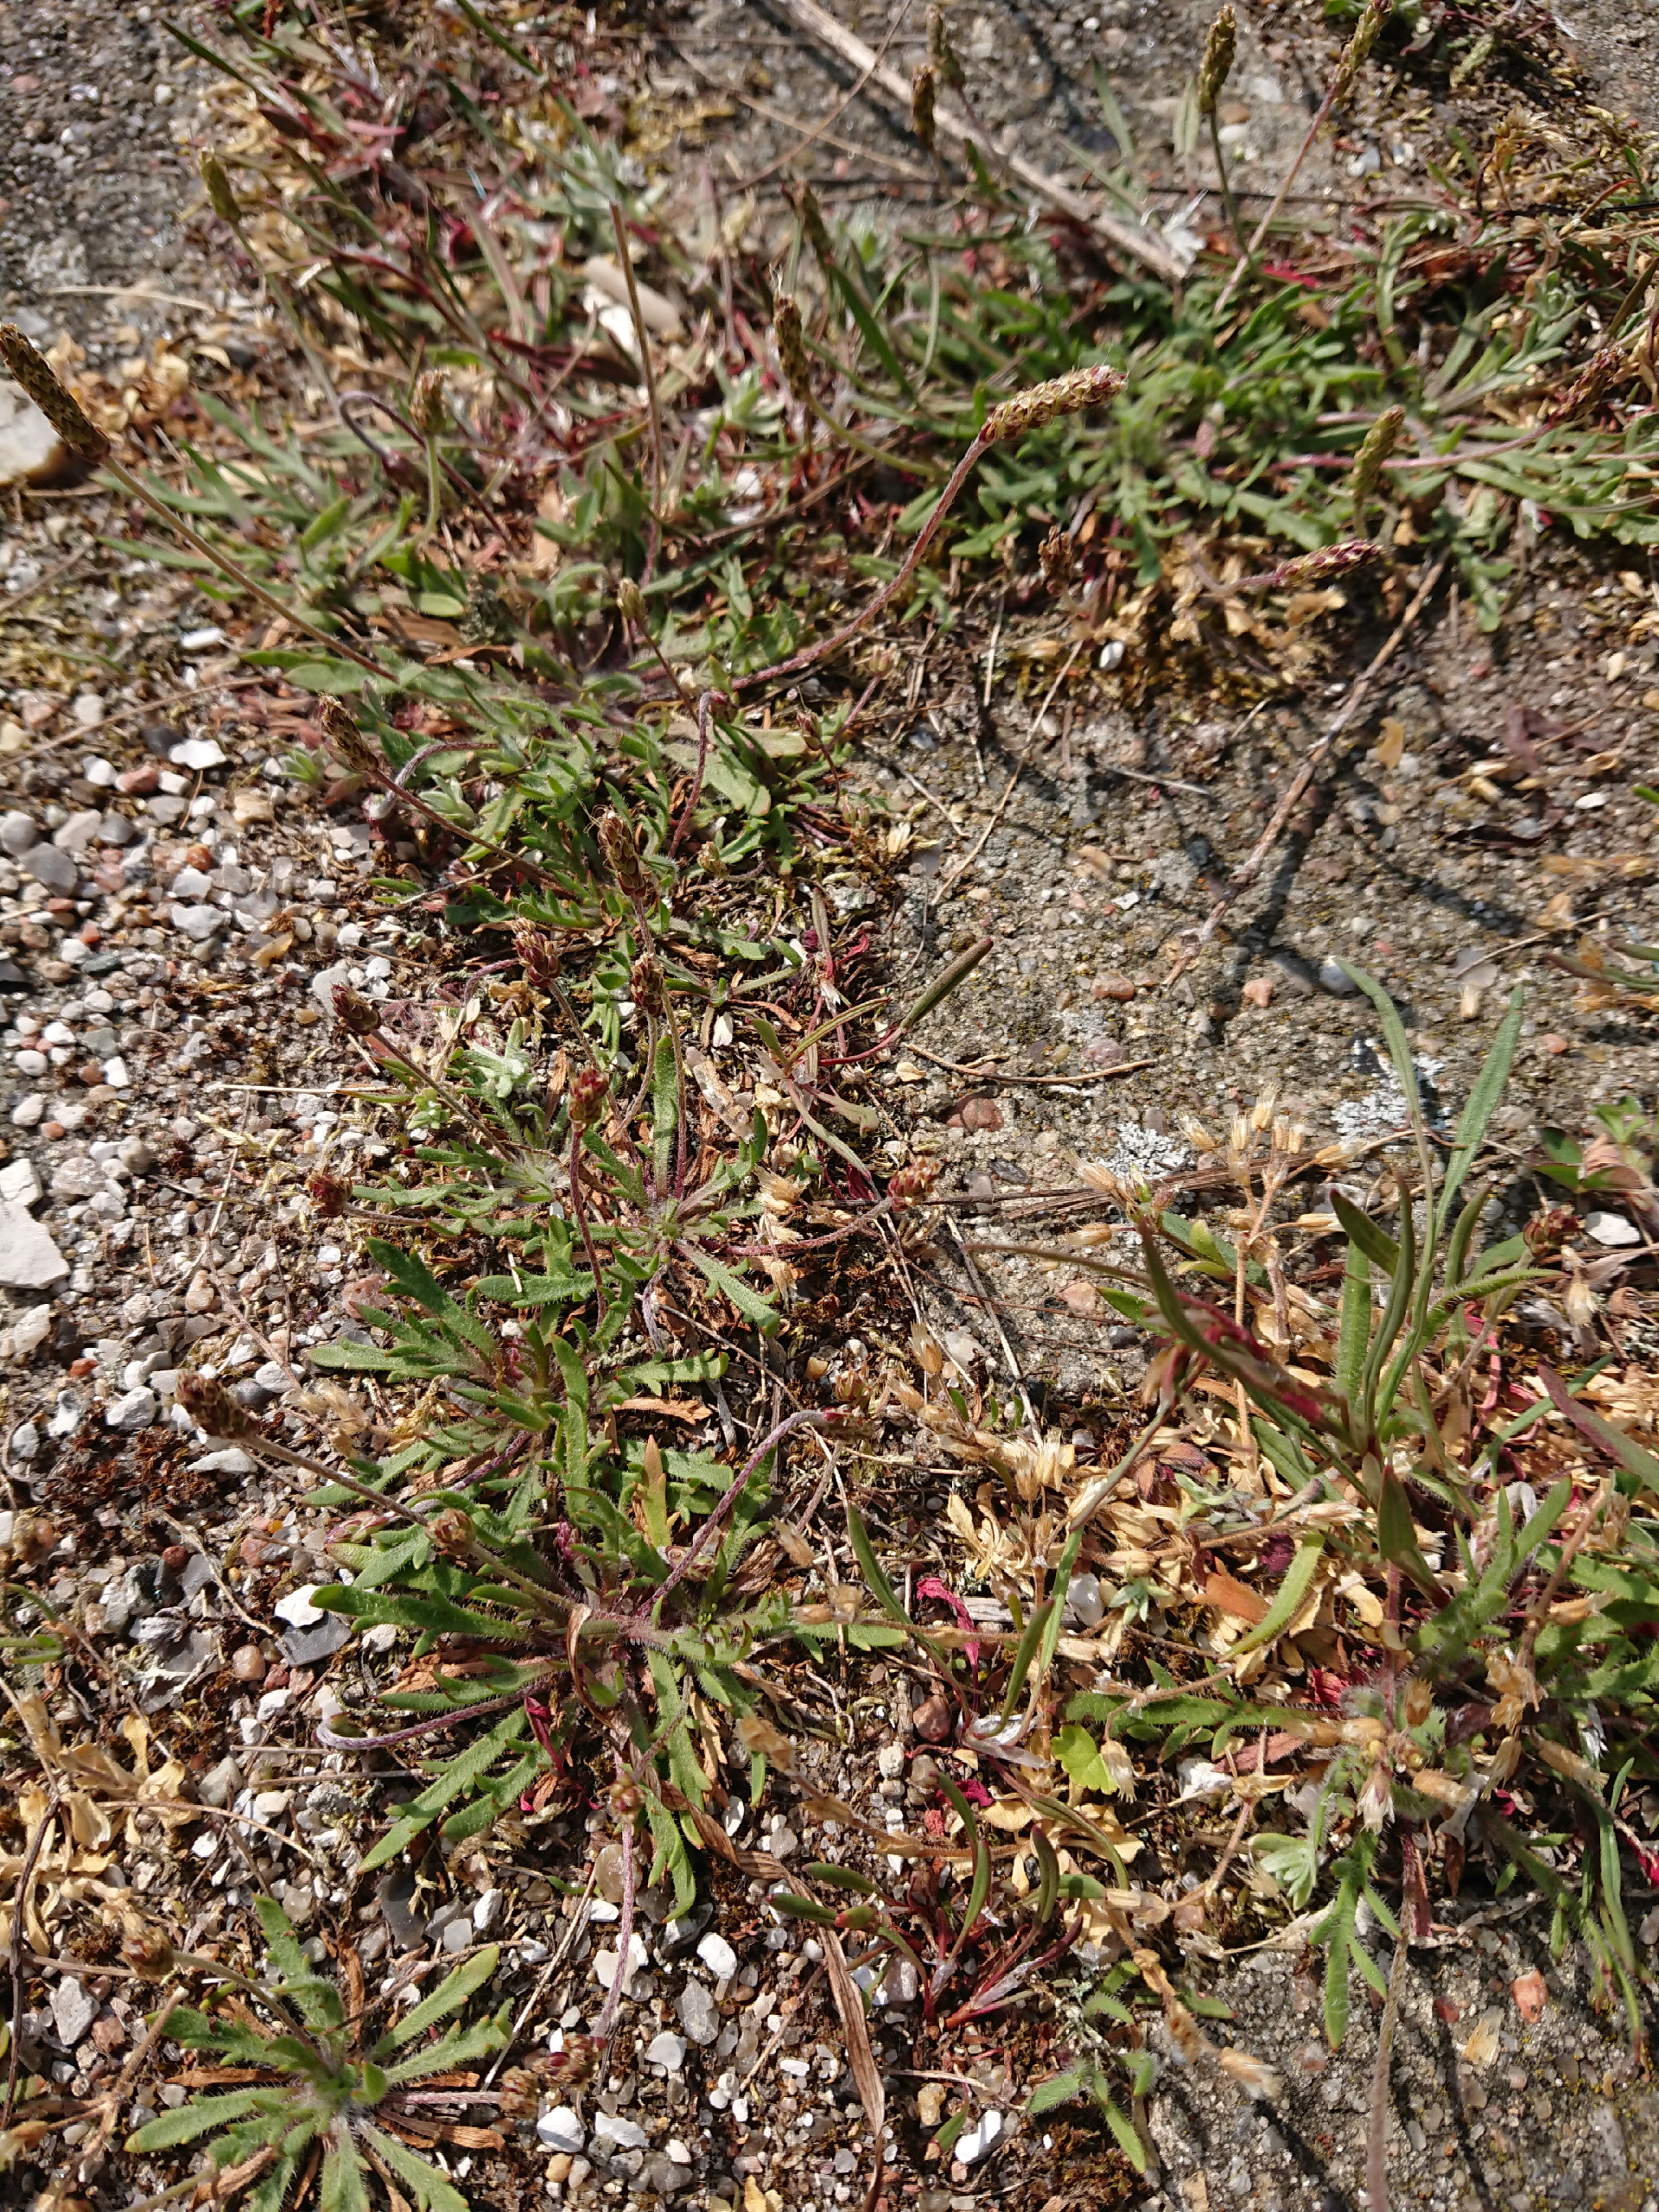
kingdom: Plantae
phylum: Tracheophyta
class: Magnoliopsida
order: Lamiales
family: Plantaginaceae
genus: Plantago
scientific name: Plantago coronopus
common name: Fliget vejbred
